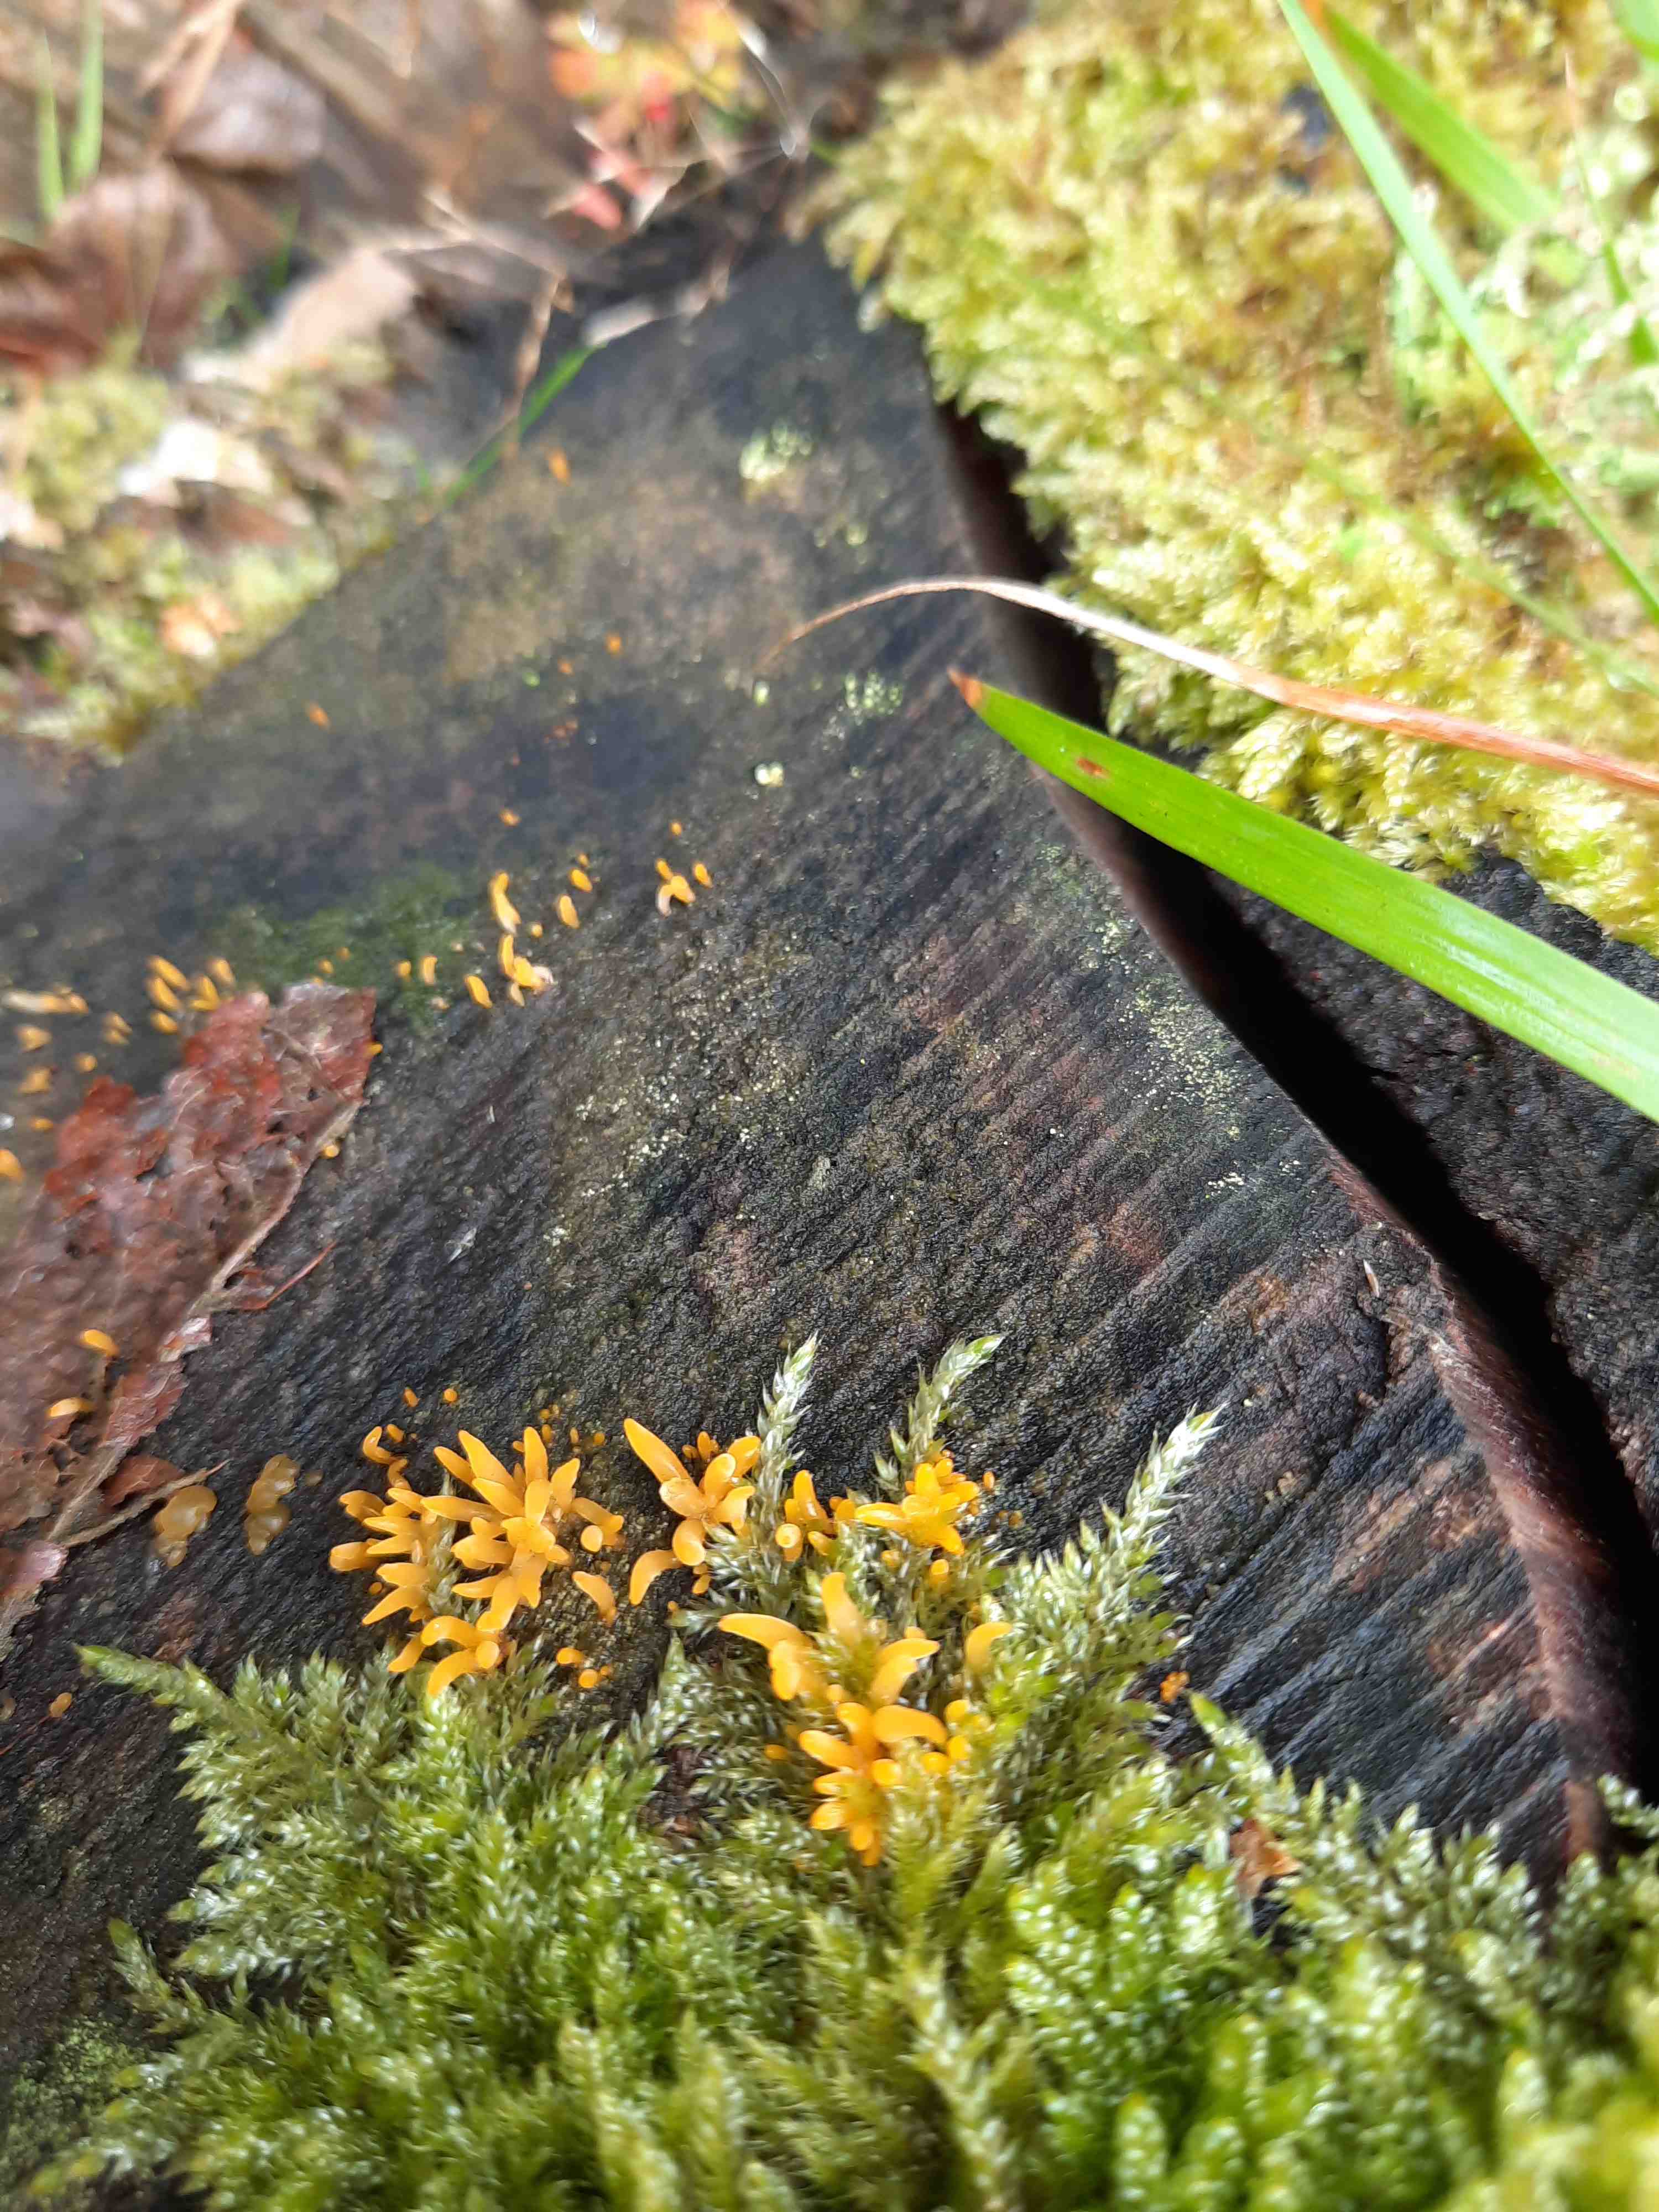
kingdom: Fungi
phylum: Basidiomycota
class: Dacrymycetes
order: Dacrymycetales
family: Dacrymycetaceae
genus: Calocera
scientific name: Calocera cornea
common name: liden guldgaffel
